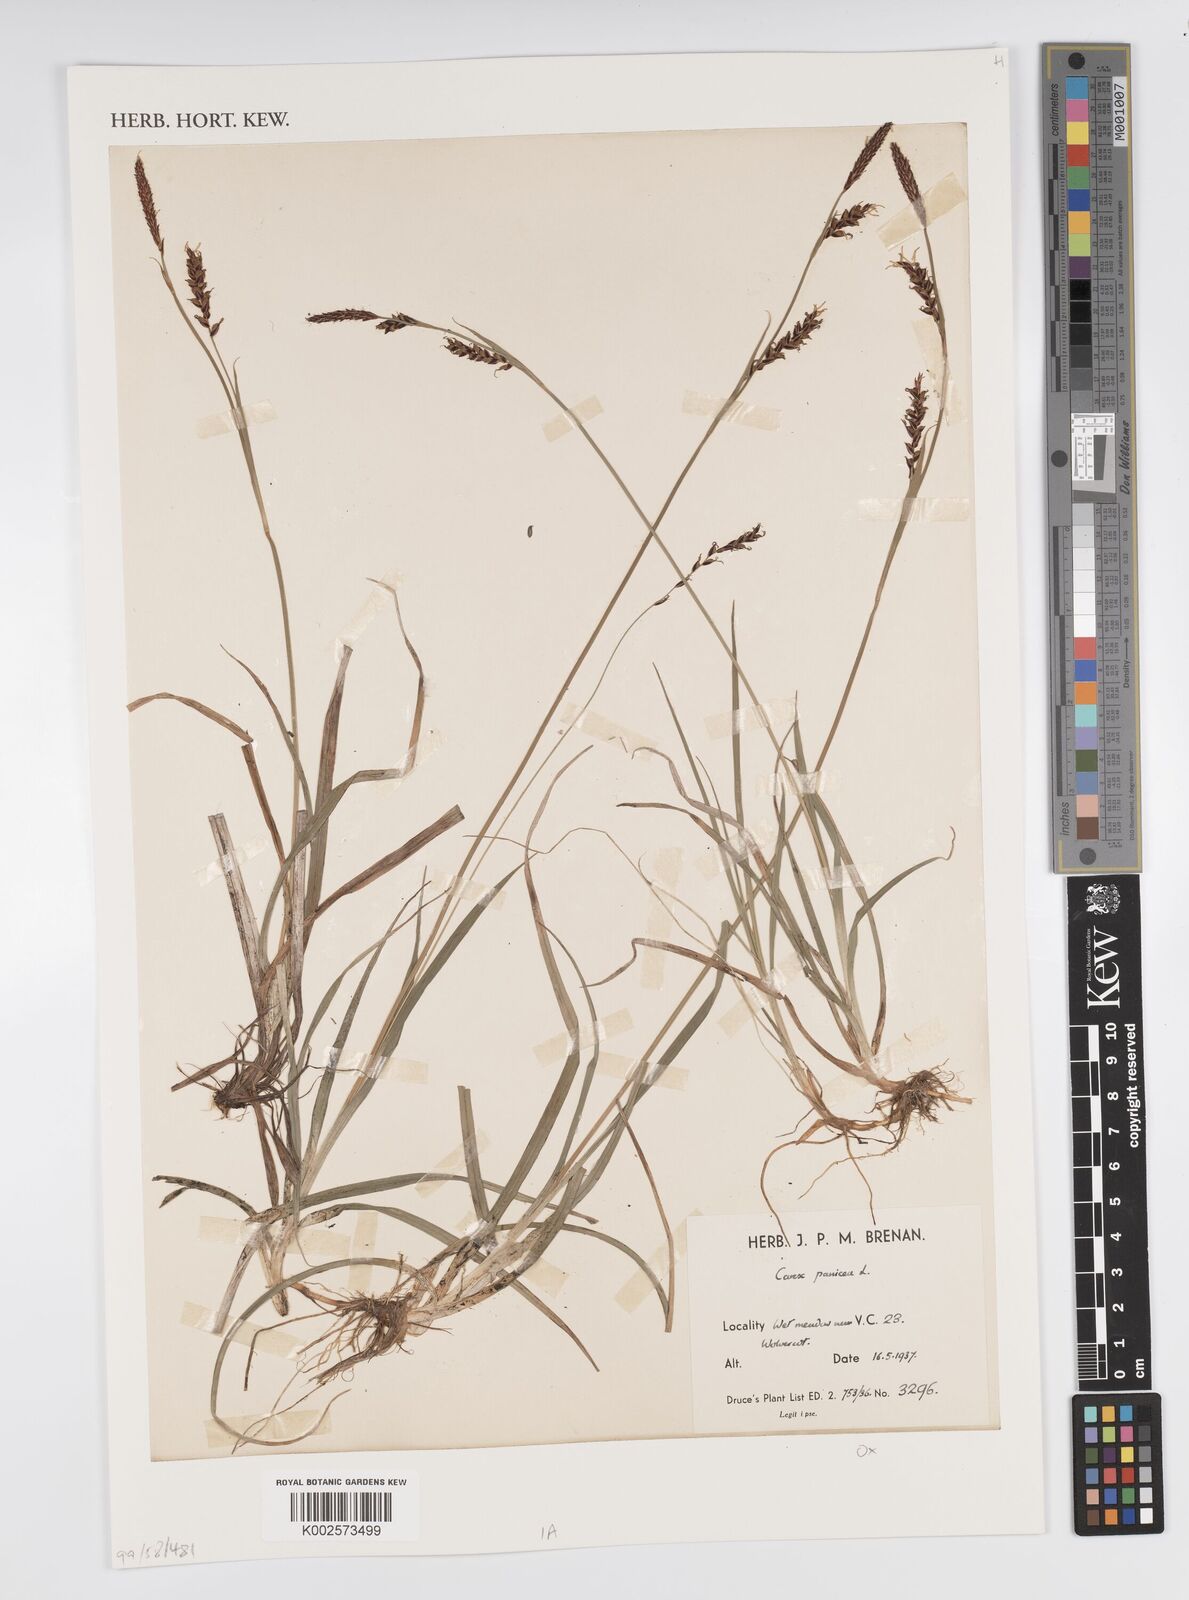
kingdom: Plantae
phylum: Tracheophyta
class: Liliopsida
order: Poales
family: Cyperaceae
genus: Carex
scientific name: Carex panicea
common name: Carnation sedge
